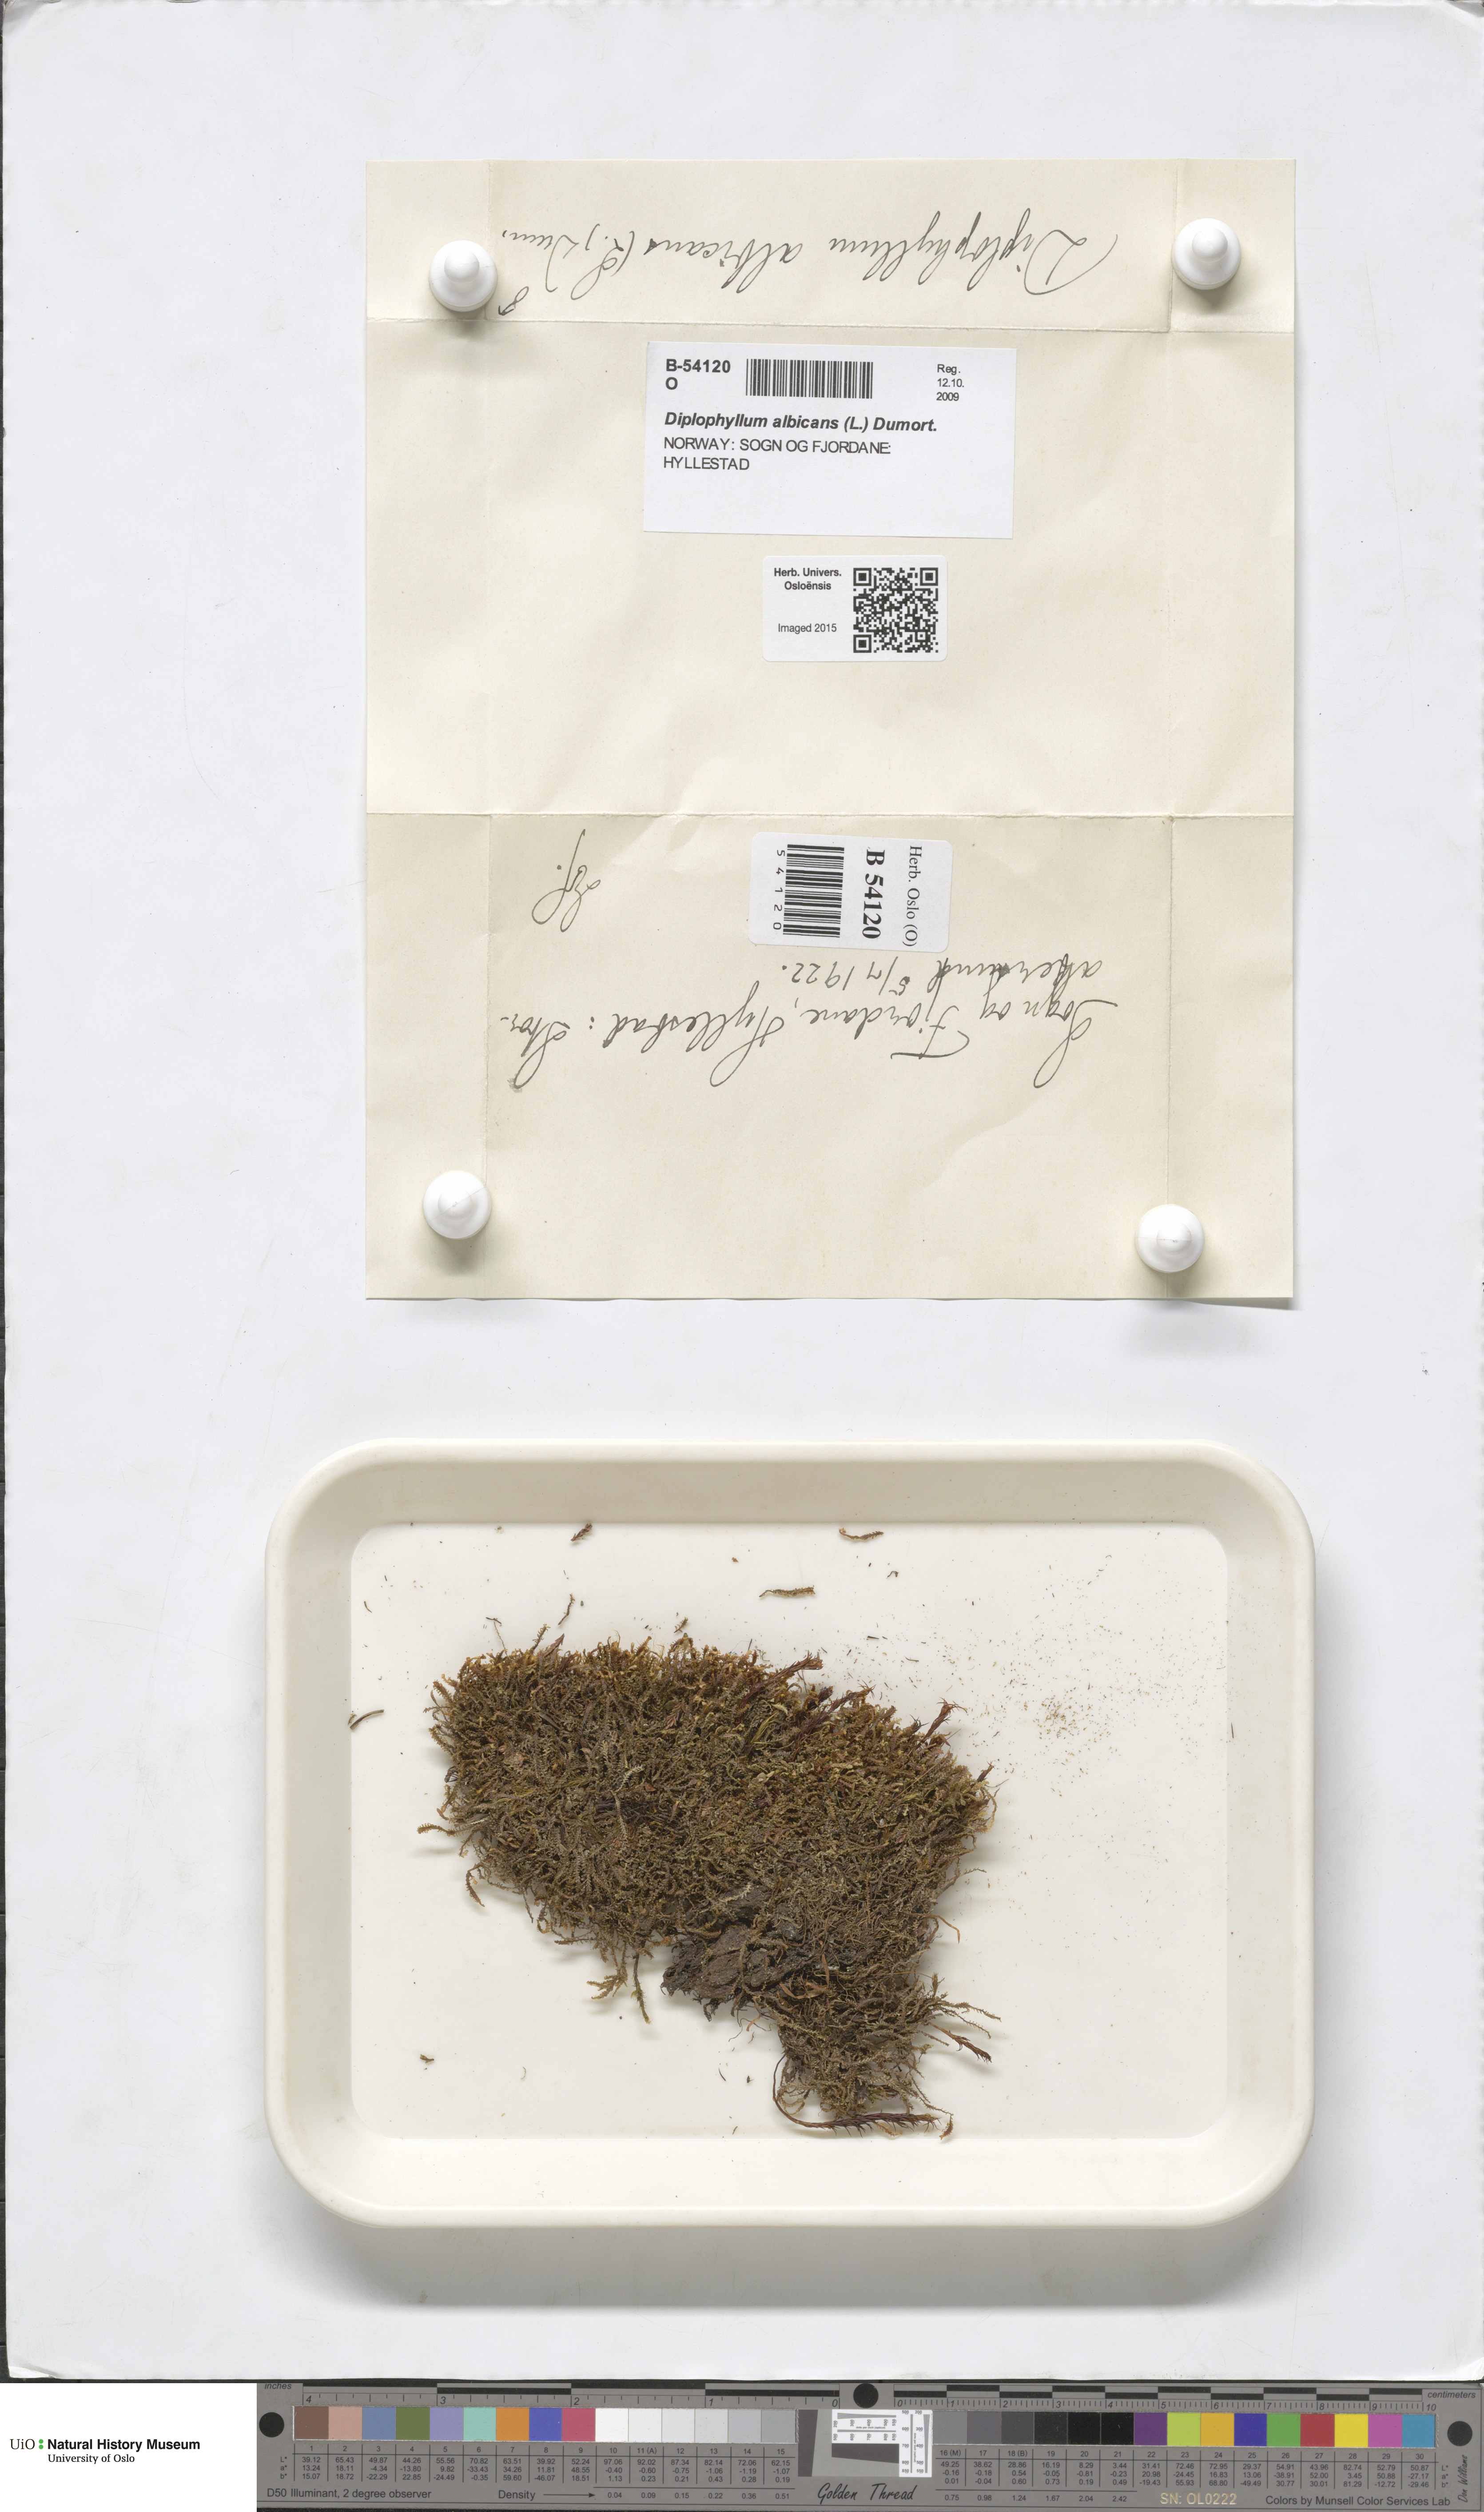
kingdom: Plantae
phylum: Marchantiophyta
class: Jungermanniopsida
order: Jungermanniales
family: Scapaniaceae
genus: Diplophyllum
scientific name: Diplophyllum albicans
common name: White earwort
